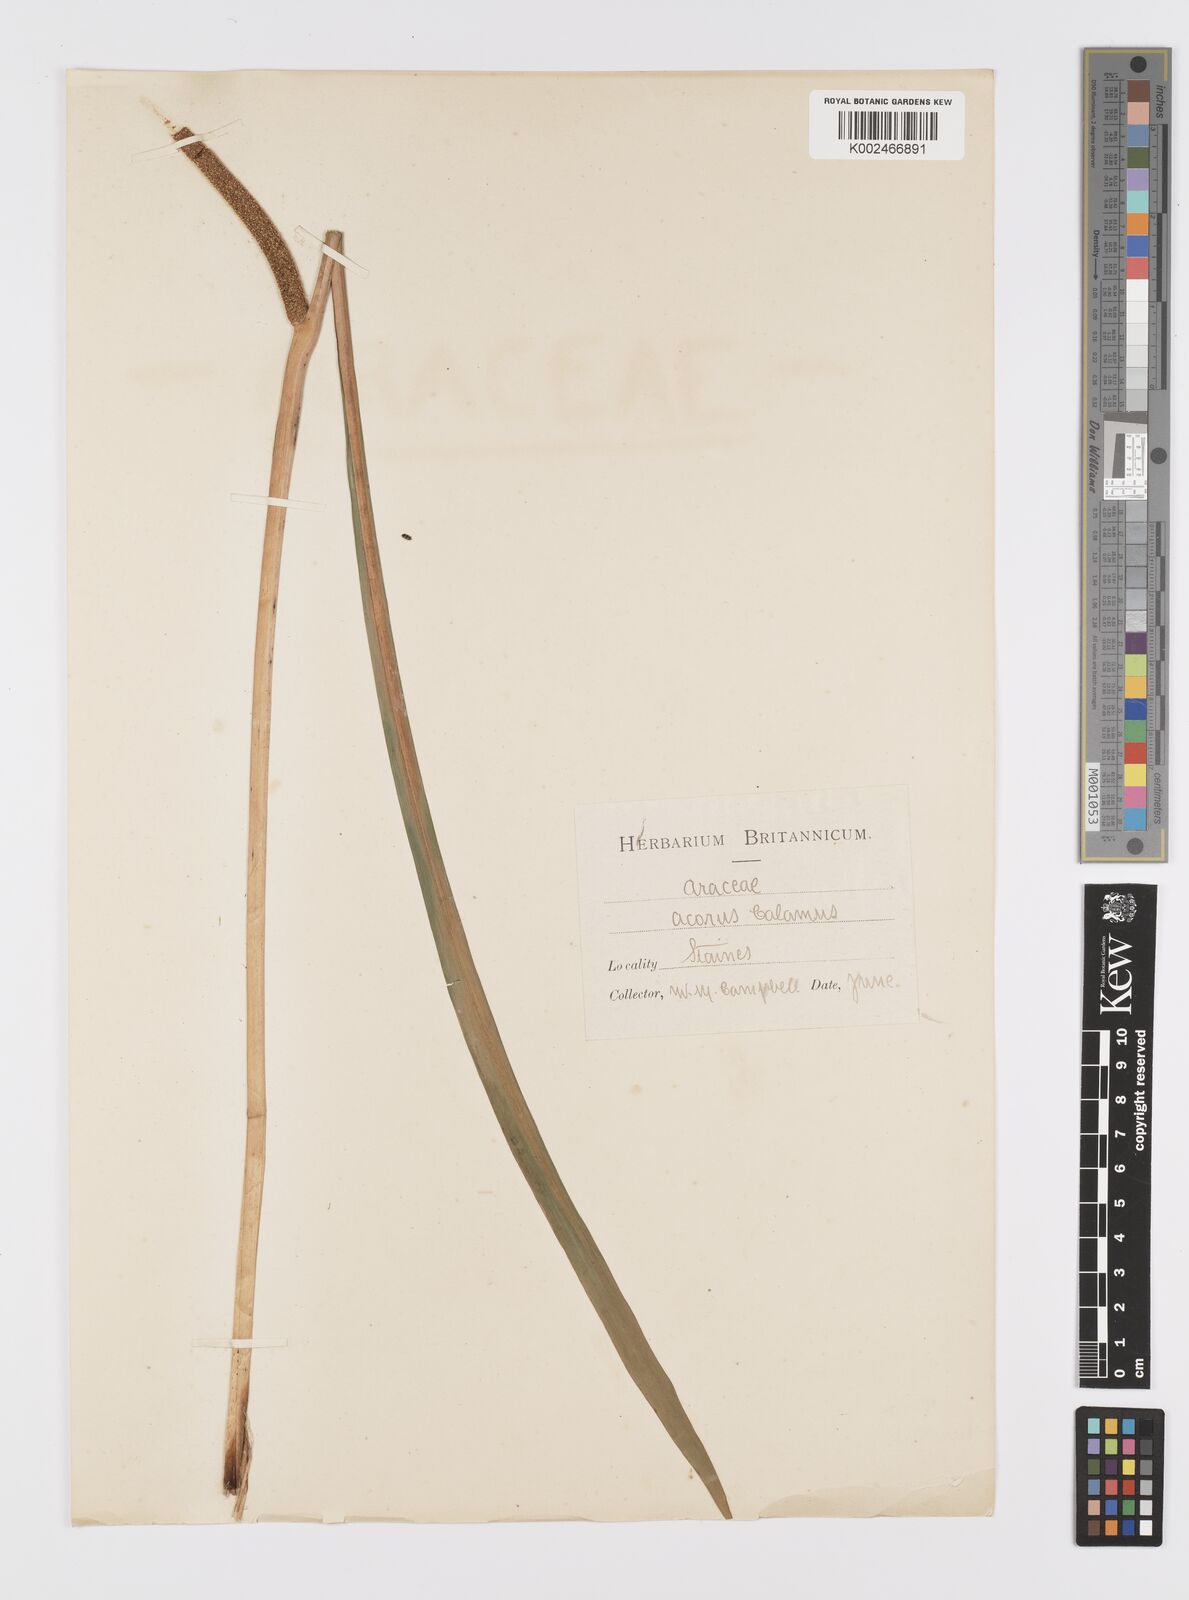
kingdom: Plantae
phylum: Tracheophyta
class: Liliopsida
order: Acorales
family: Acoraceae
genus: Acorus
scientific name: Acorus calamus
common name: Sweet-flag
